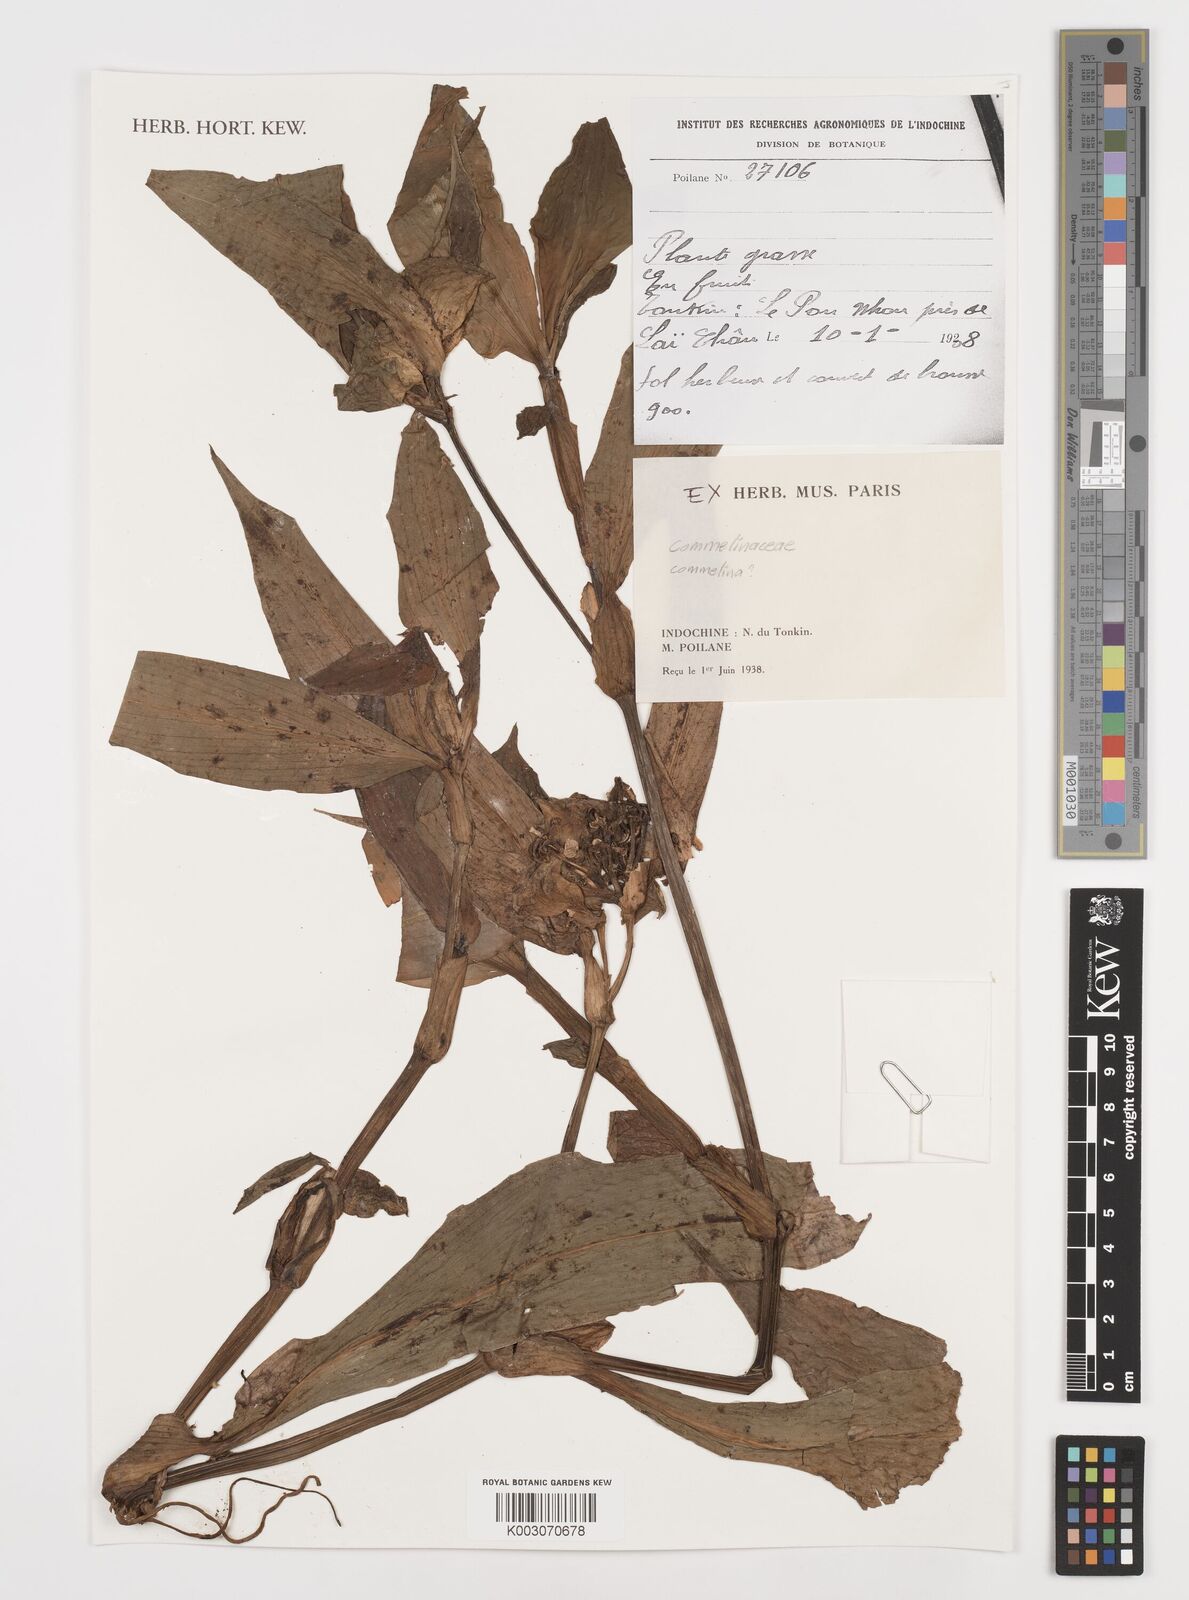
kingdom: Plantae
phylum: Tracheophyta
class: Liliopsida
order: Commelinales
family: Commelinaceae
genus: Commelina
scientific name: Commelina
